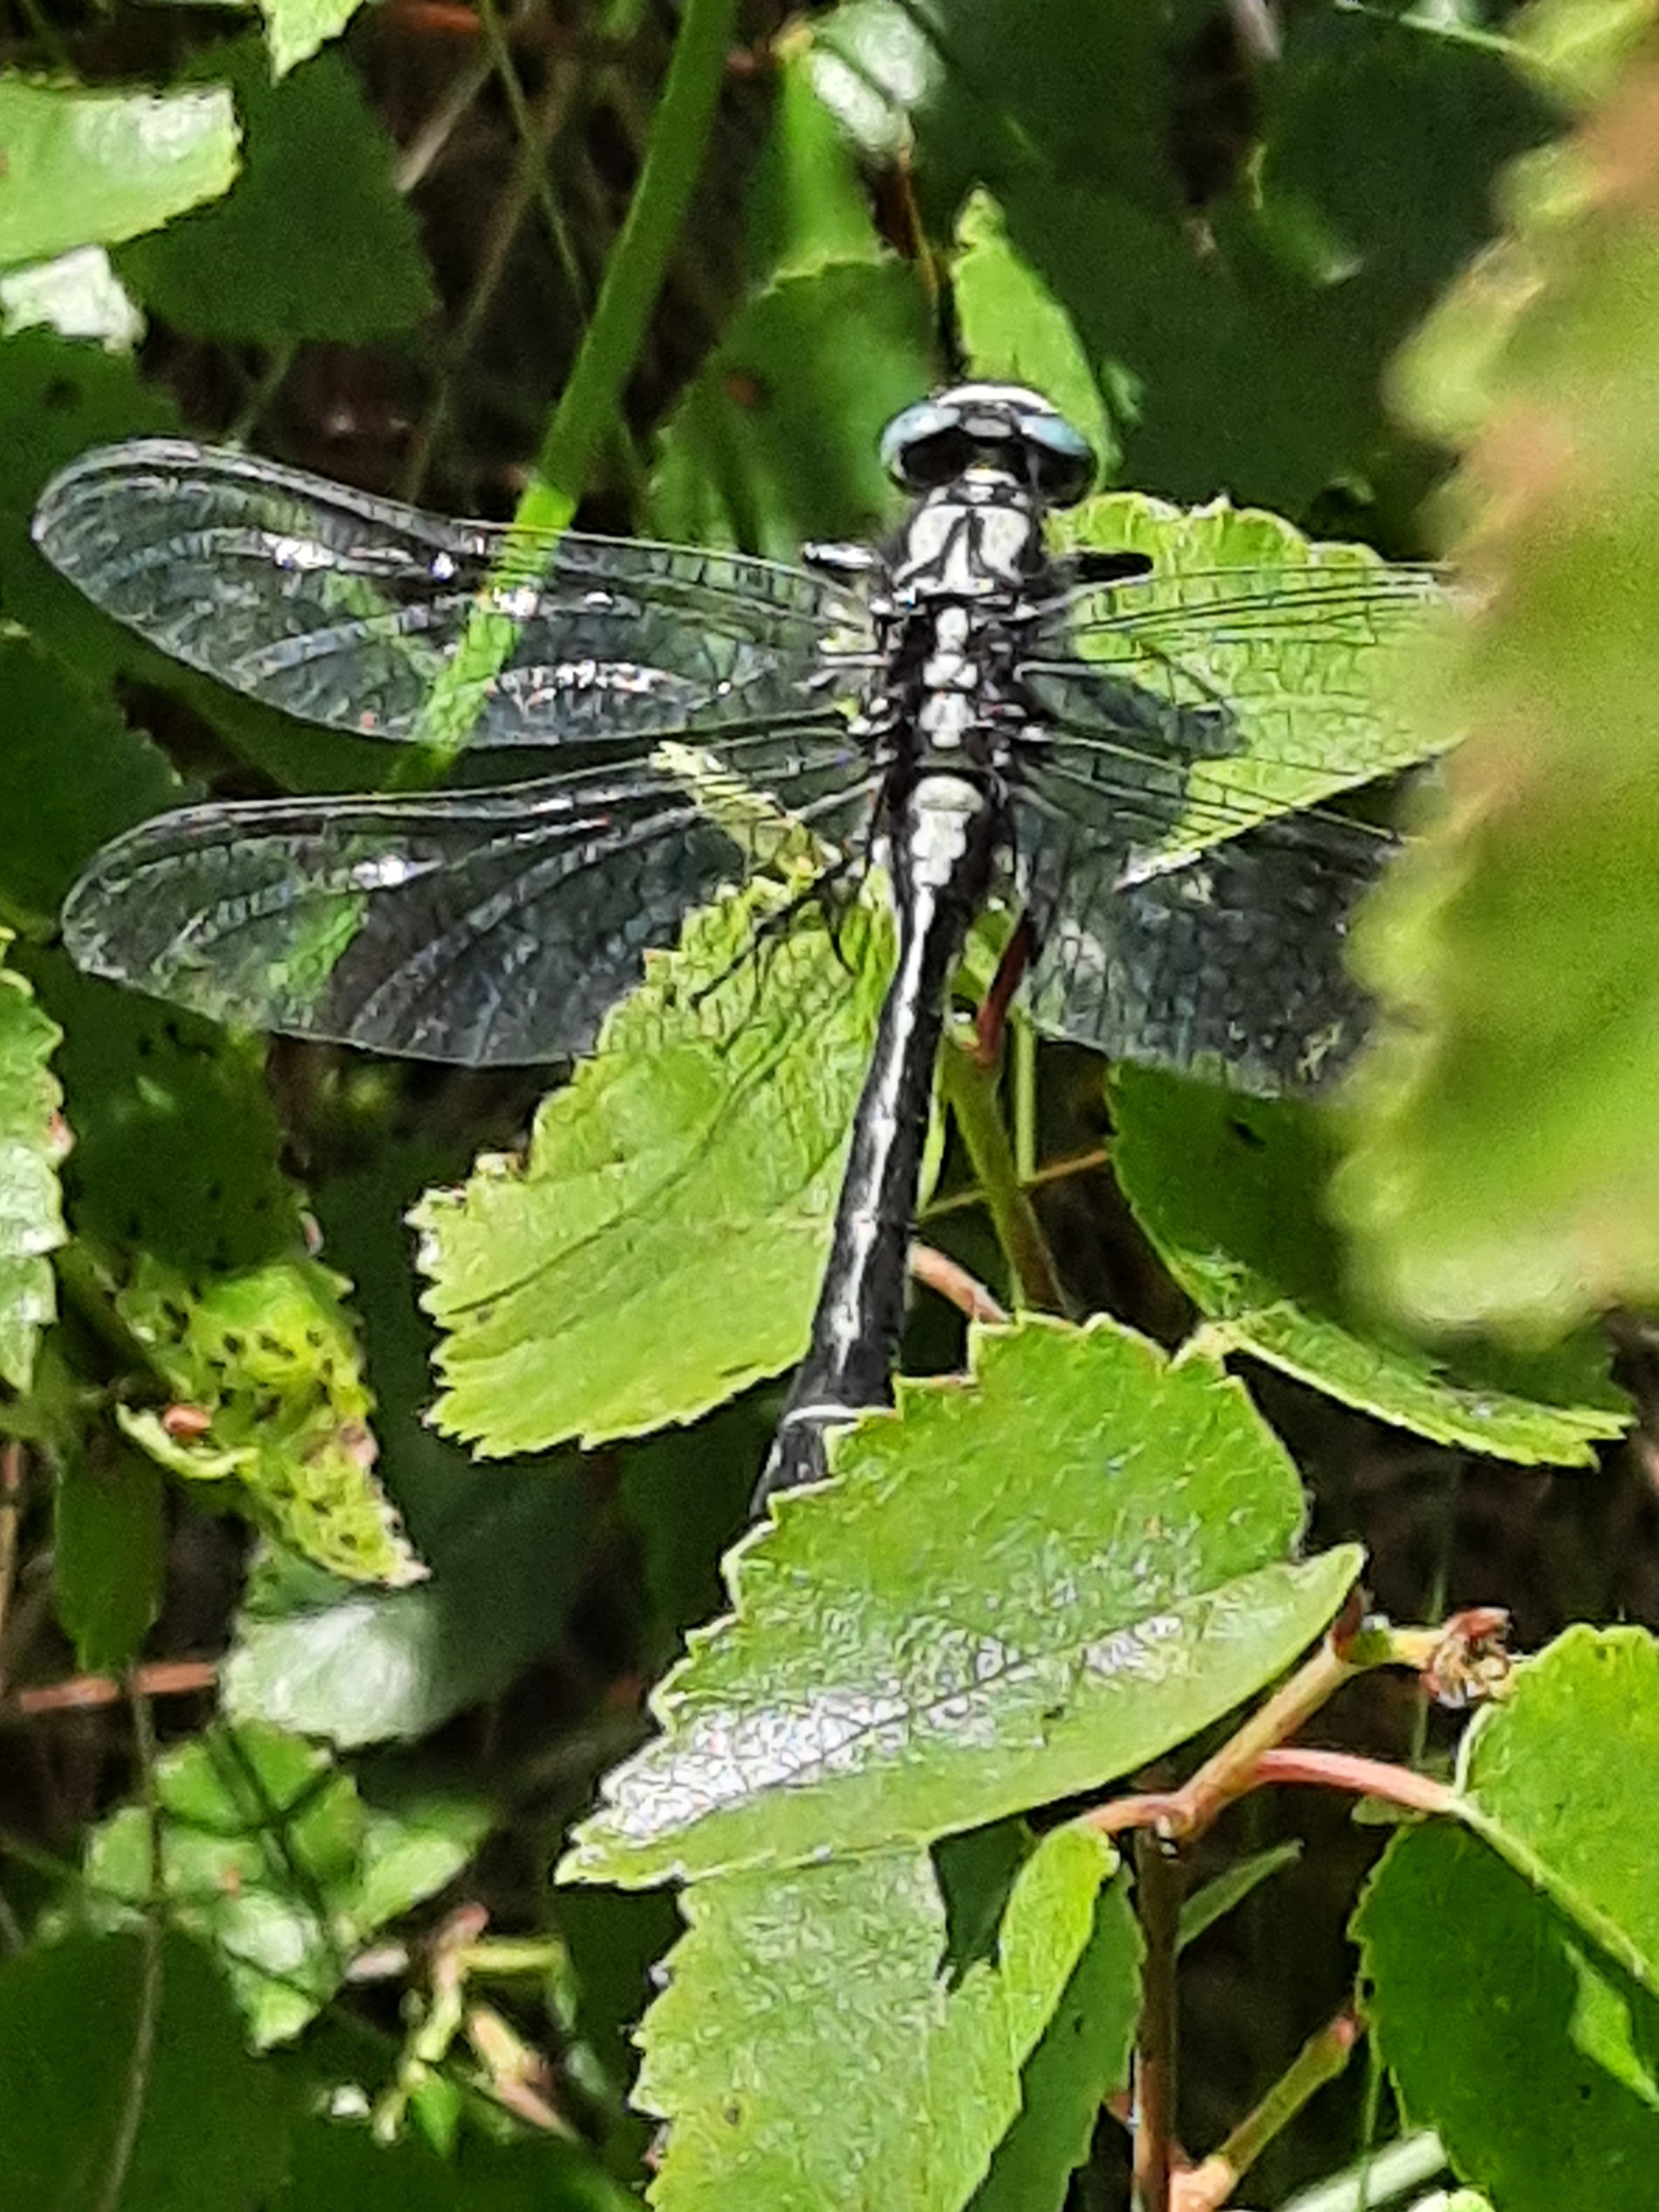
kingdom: Animalia
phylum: Arthropoda
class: Insecta
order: Odonata
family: Gomphidae
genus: Gomphus
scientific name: Gomphus vulgatissimus
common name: Almindelig flodguldsmed
